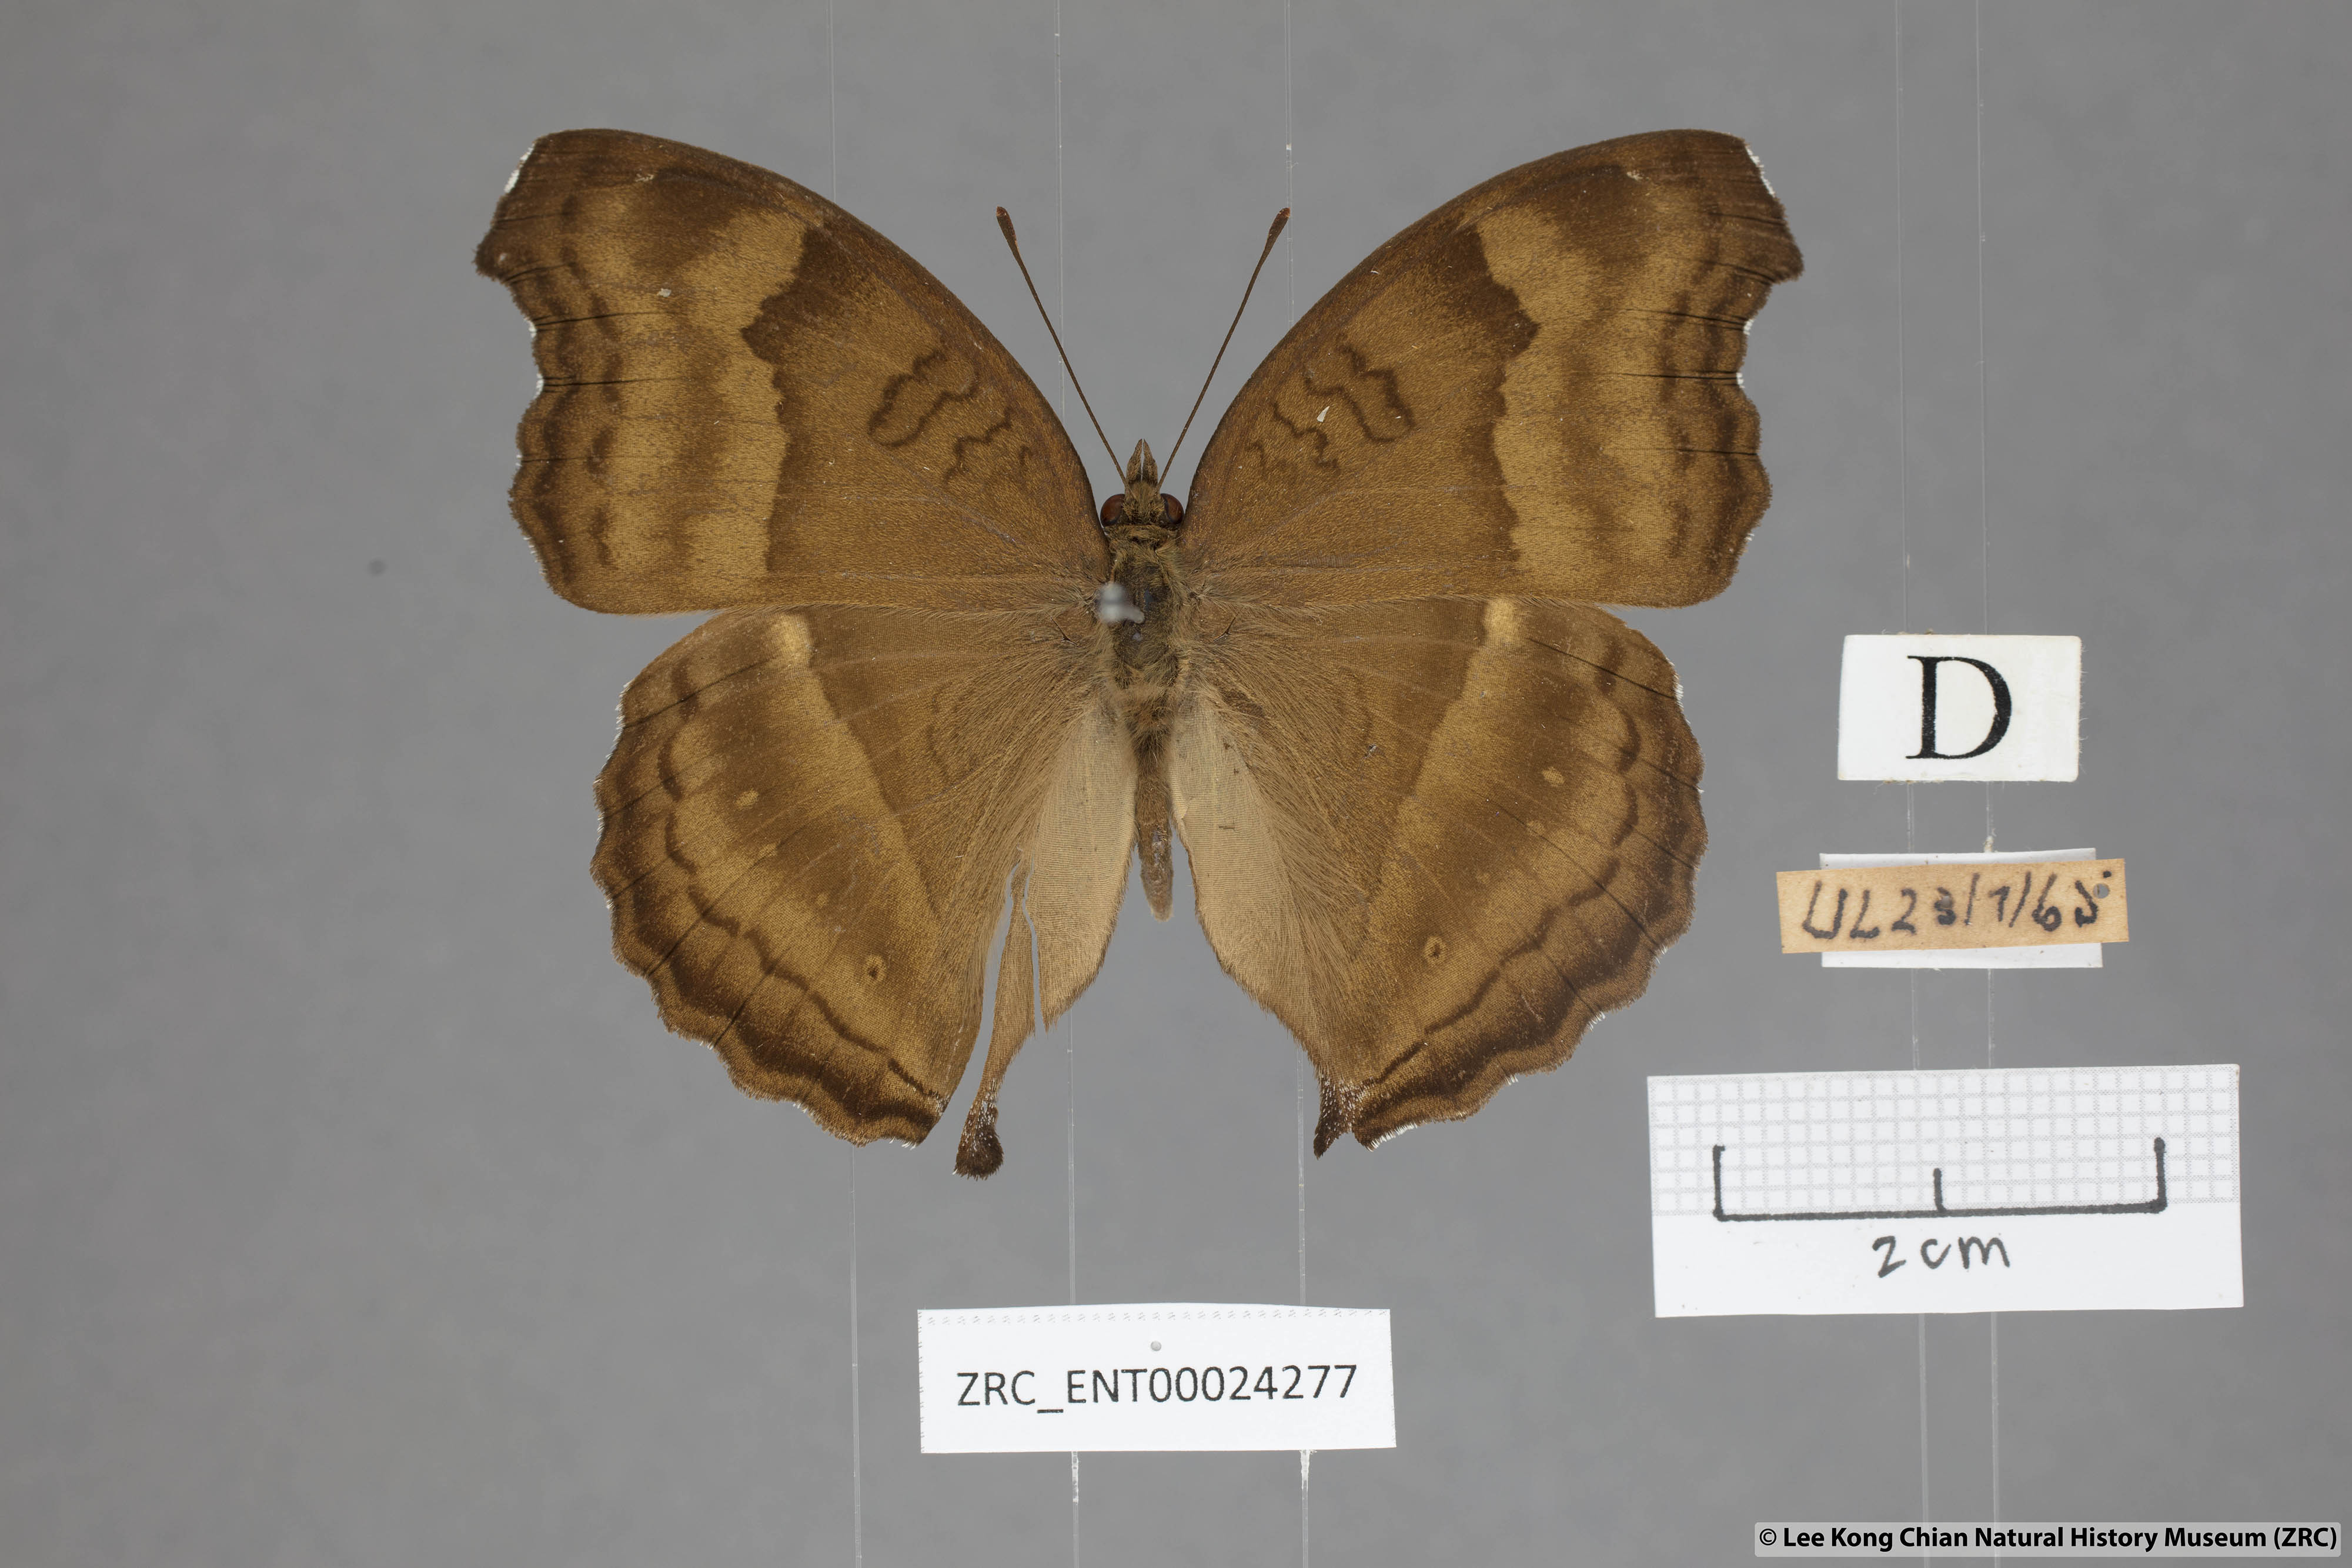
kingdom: Animalia
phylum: Arthropoda
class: Insecta
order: Lepidoptera
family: Nymphalidae
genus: Junonia
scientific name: Junonia iphita
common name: Chocolate pansy
